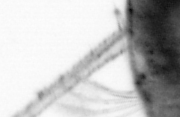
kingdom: Animalia
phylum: Arthropoda
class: Copepoda
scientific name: Copepoda
